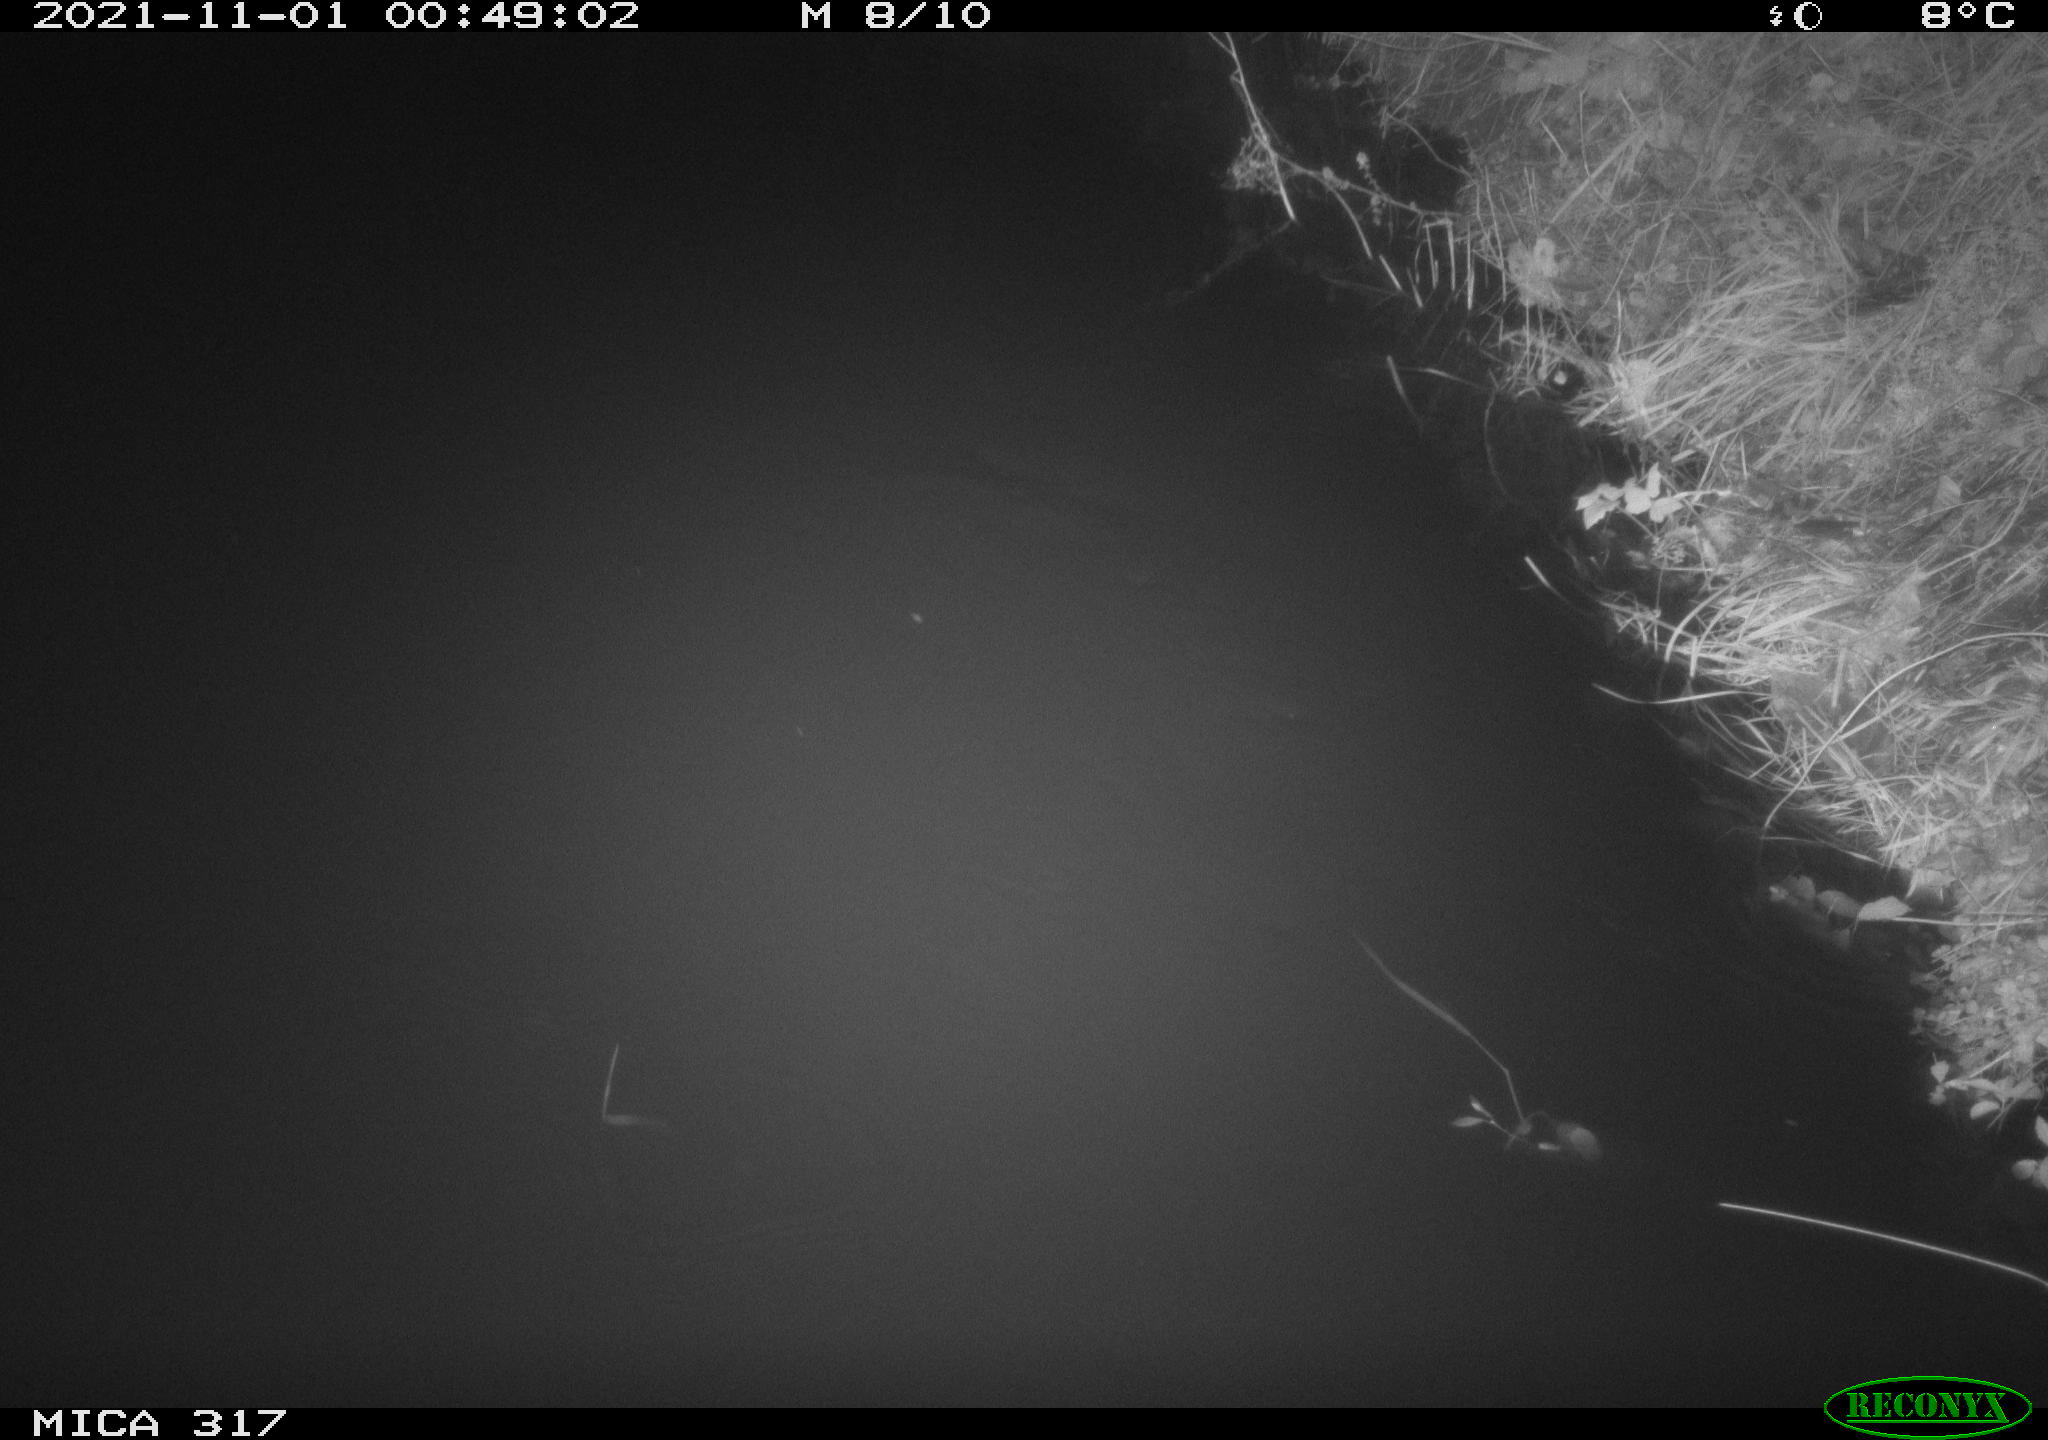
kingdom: Animalia
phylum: Chordata
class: Mammalia
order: Carnivora
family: Canidae
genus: Vulpes
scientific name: Vulpes vulpes
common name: Red fox
